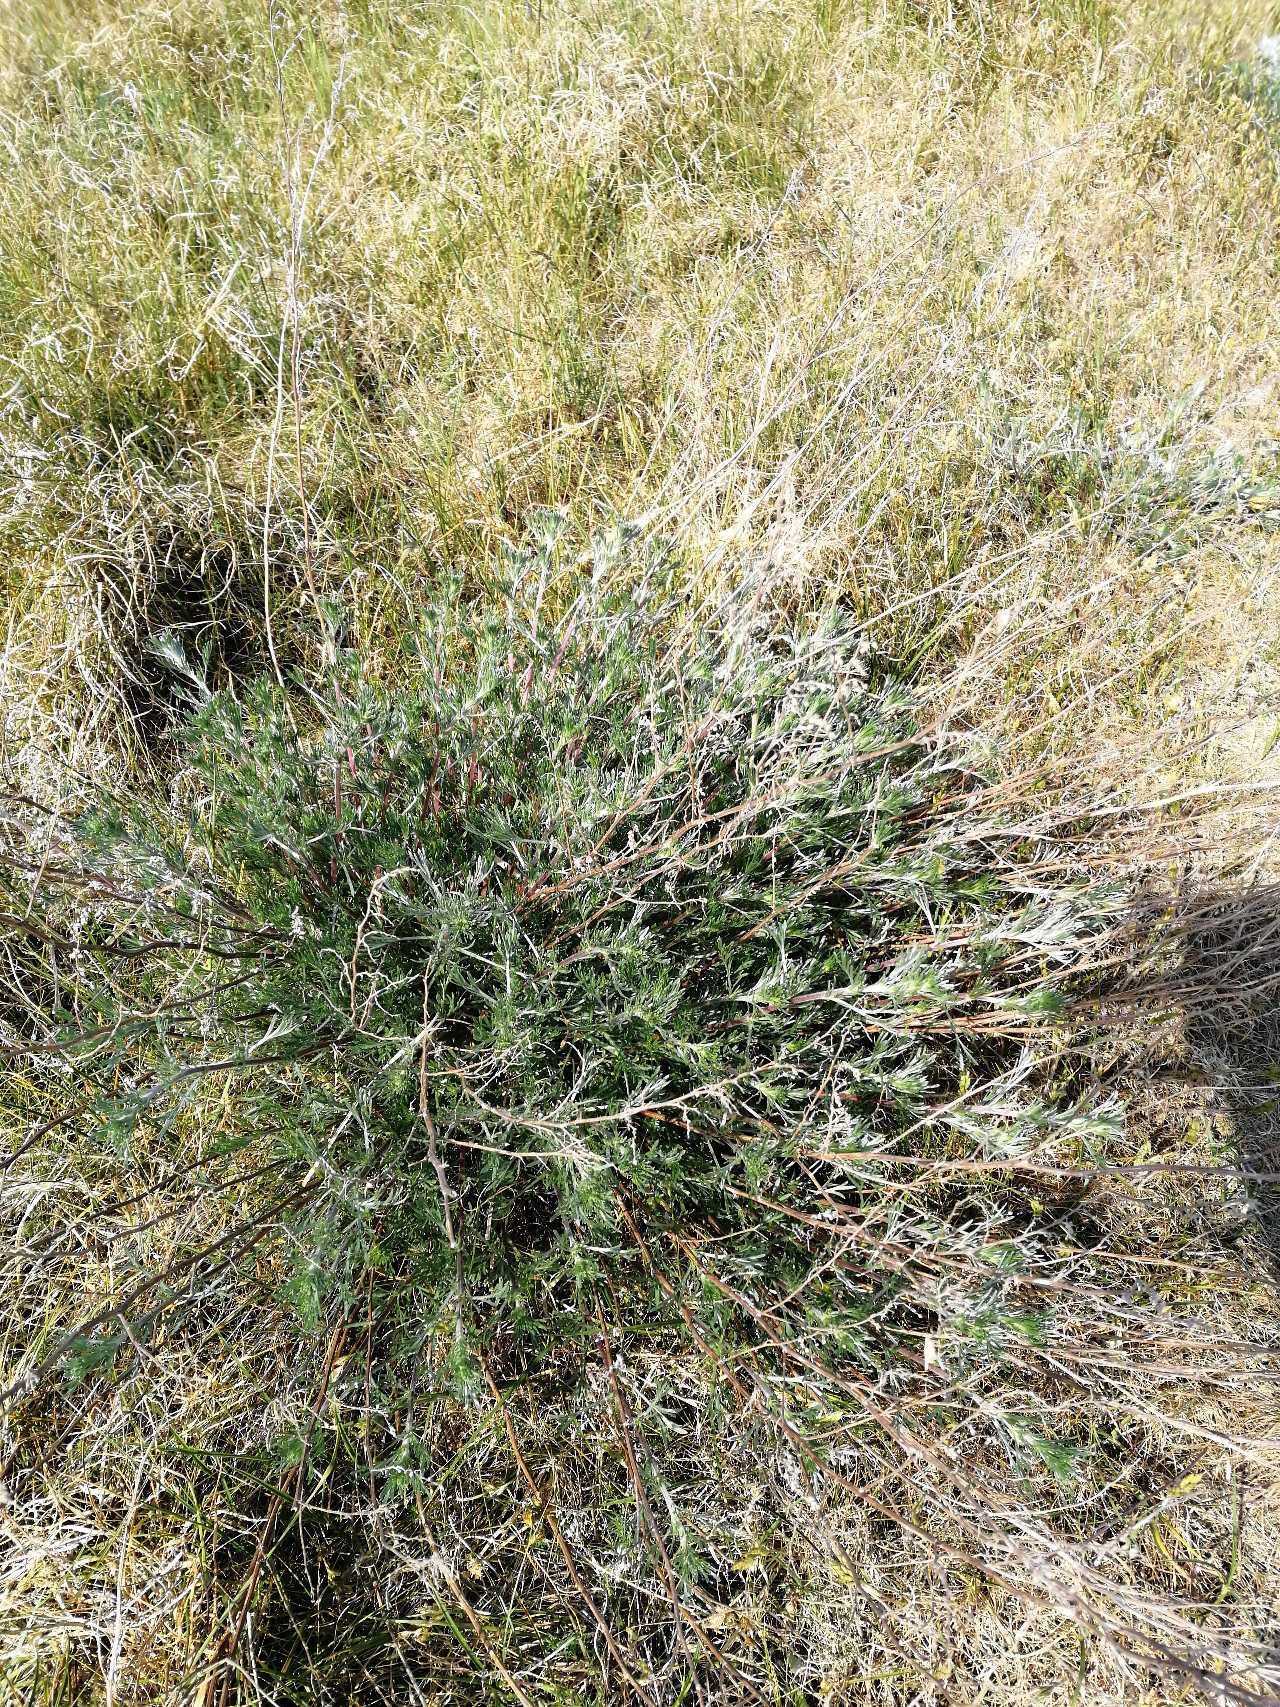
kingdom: Plantae
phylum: Tracheophyta
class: Magnoliopsida
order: Asterales
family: Asteraceae
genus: Artemisia
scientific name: Artemisia campestris
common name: Mark-bynke
